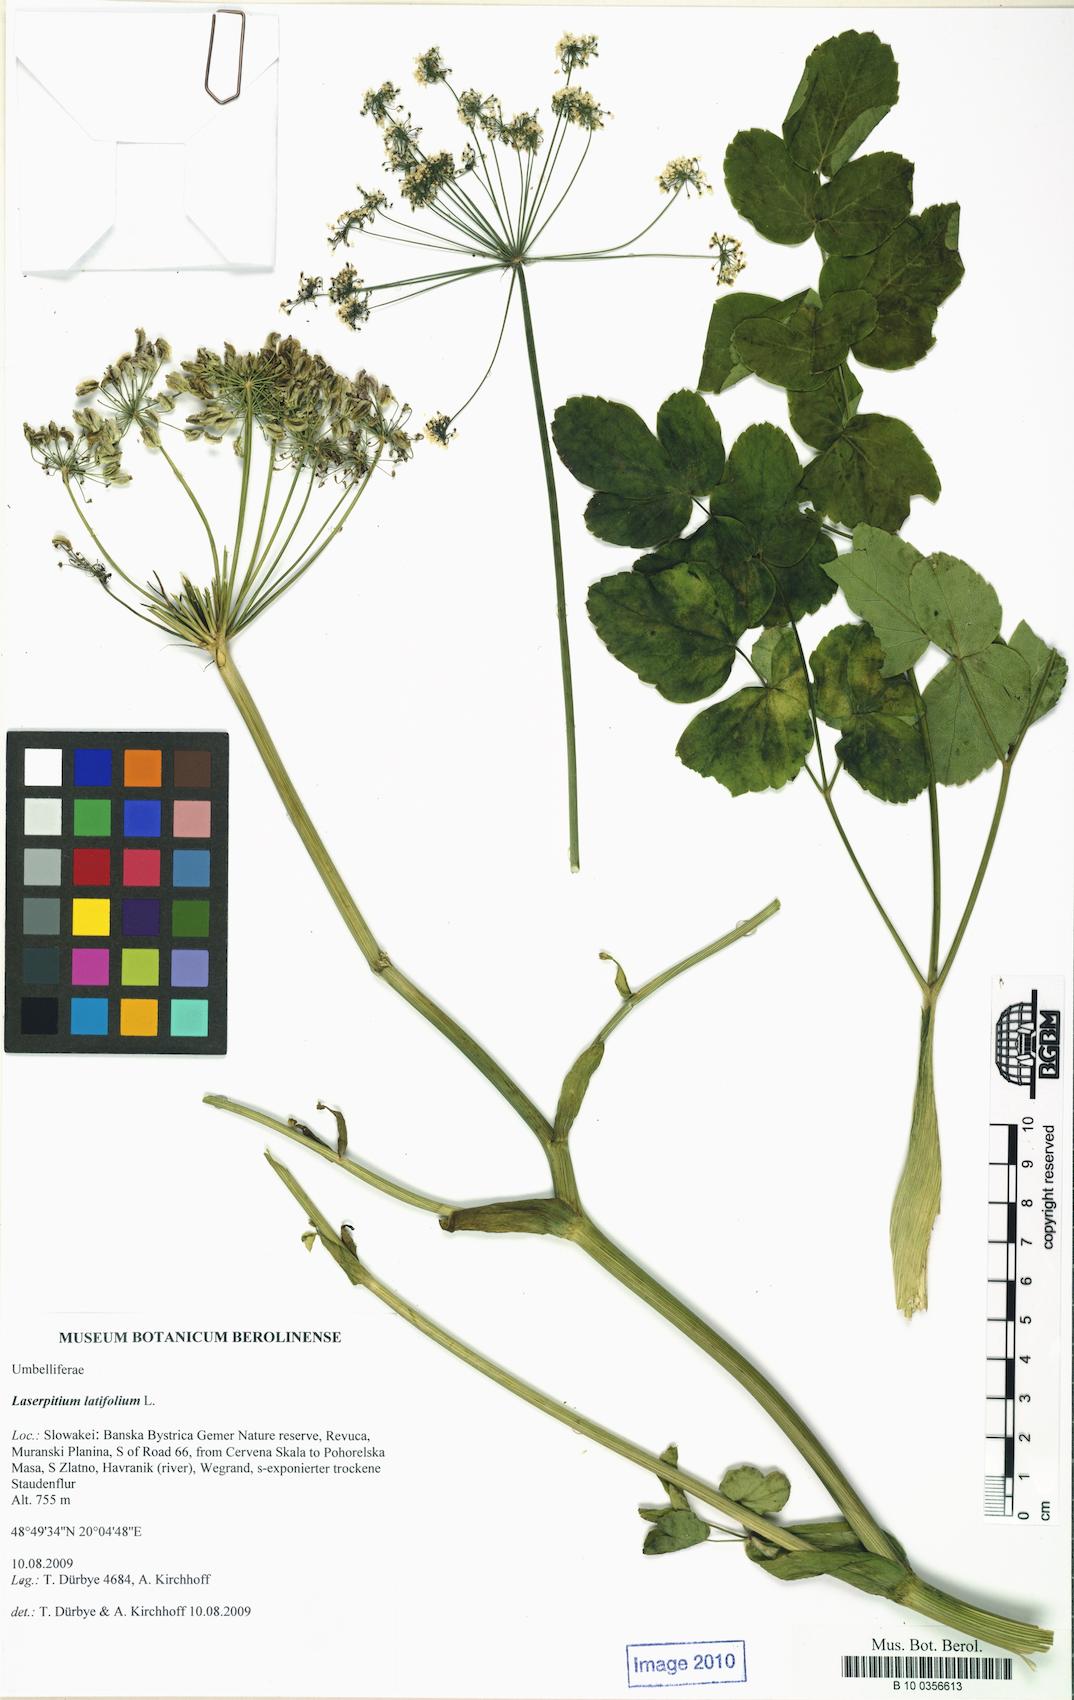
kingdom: Plantae
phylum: Tracheophyta
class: Magnoliopsida
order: Apiales
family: Apiaceae
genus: Laserpitium
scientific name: Laserpitium latifolium
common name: Broadleaf sermountain
